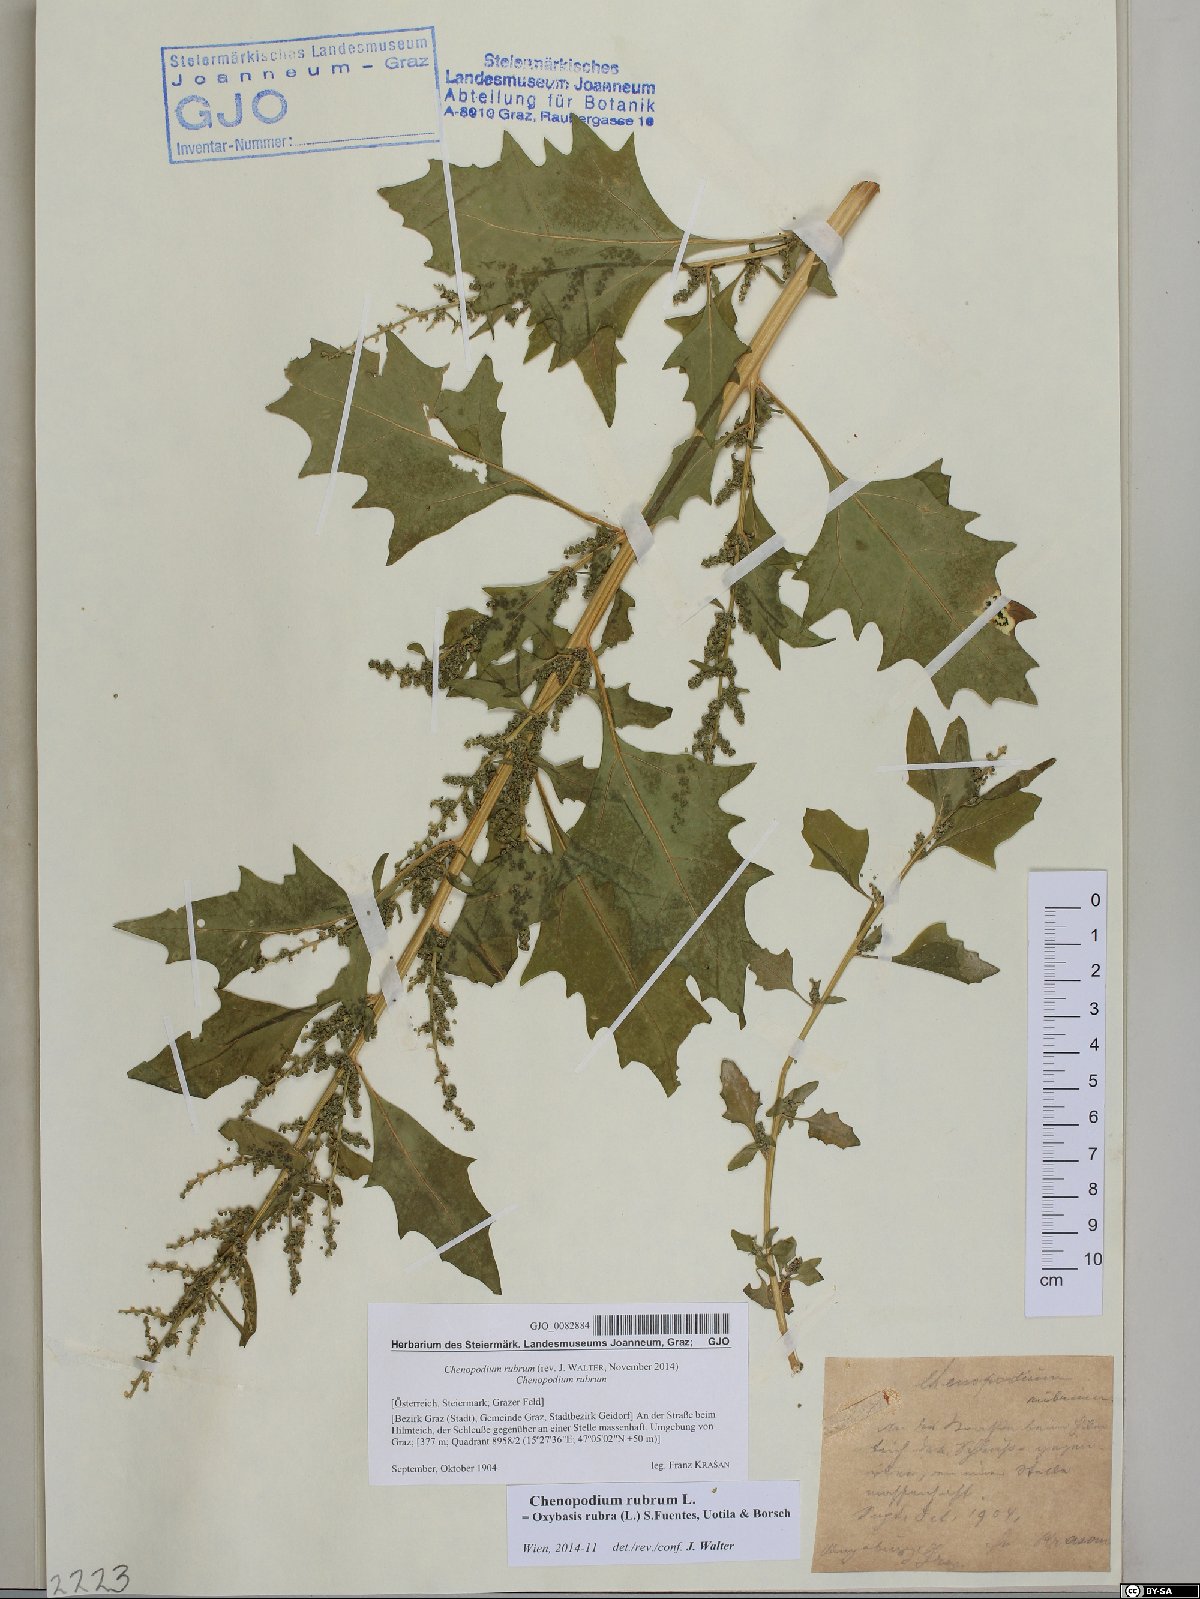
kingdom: Plantae
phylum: Tracheophyta
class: Magnoliopsida
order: Caryophyllales
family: Amaranthaceae
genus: Oxybasis
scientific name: Oxybasis rubra
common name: Red goosefoot
